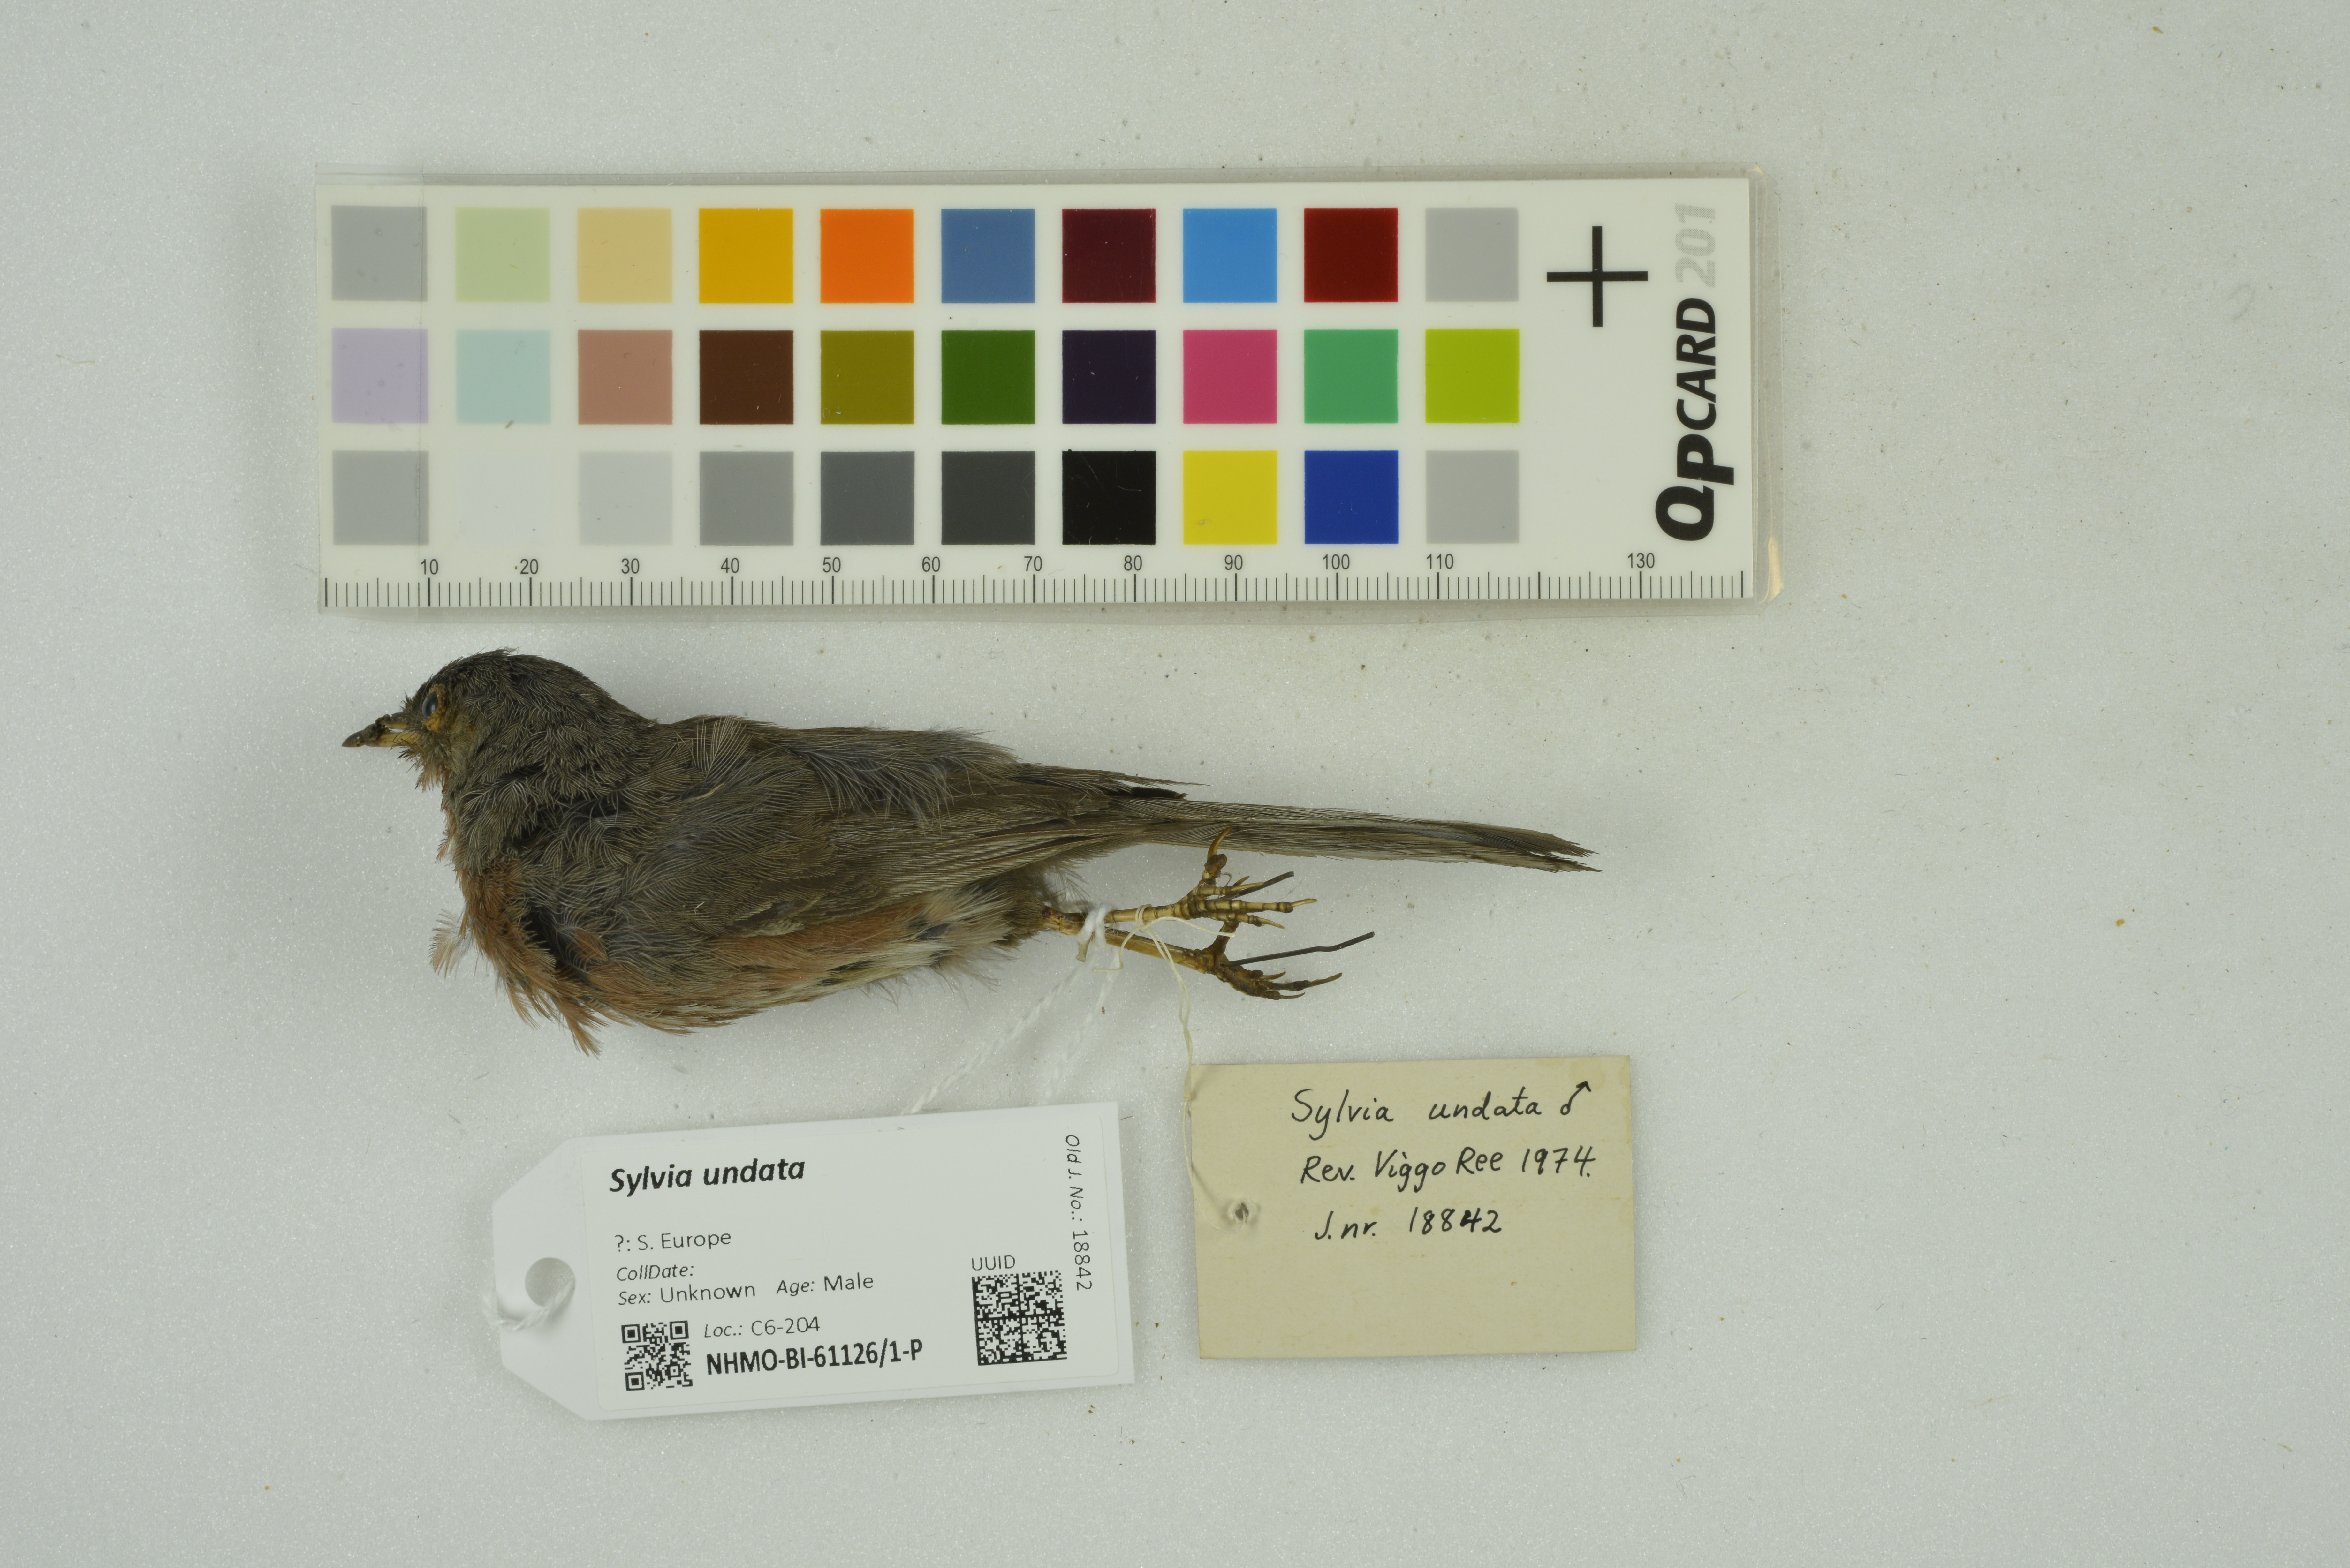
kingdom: Animalia
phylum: Chordata
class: Aves
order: Passeriformes
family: Sylviidae
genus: Sylvia
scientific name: Sylvia undata
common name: Dartford warbler
